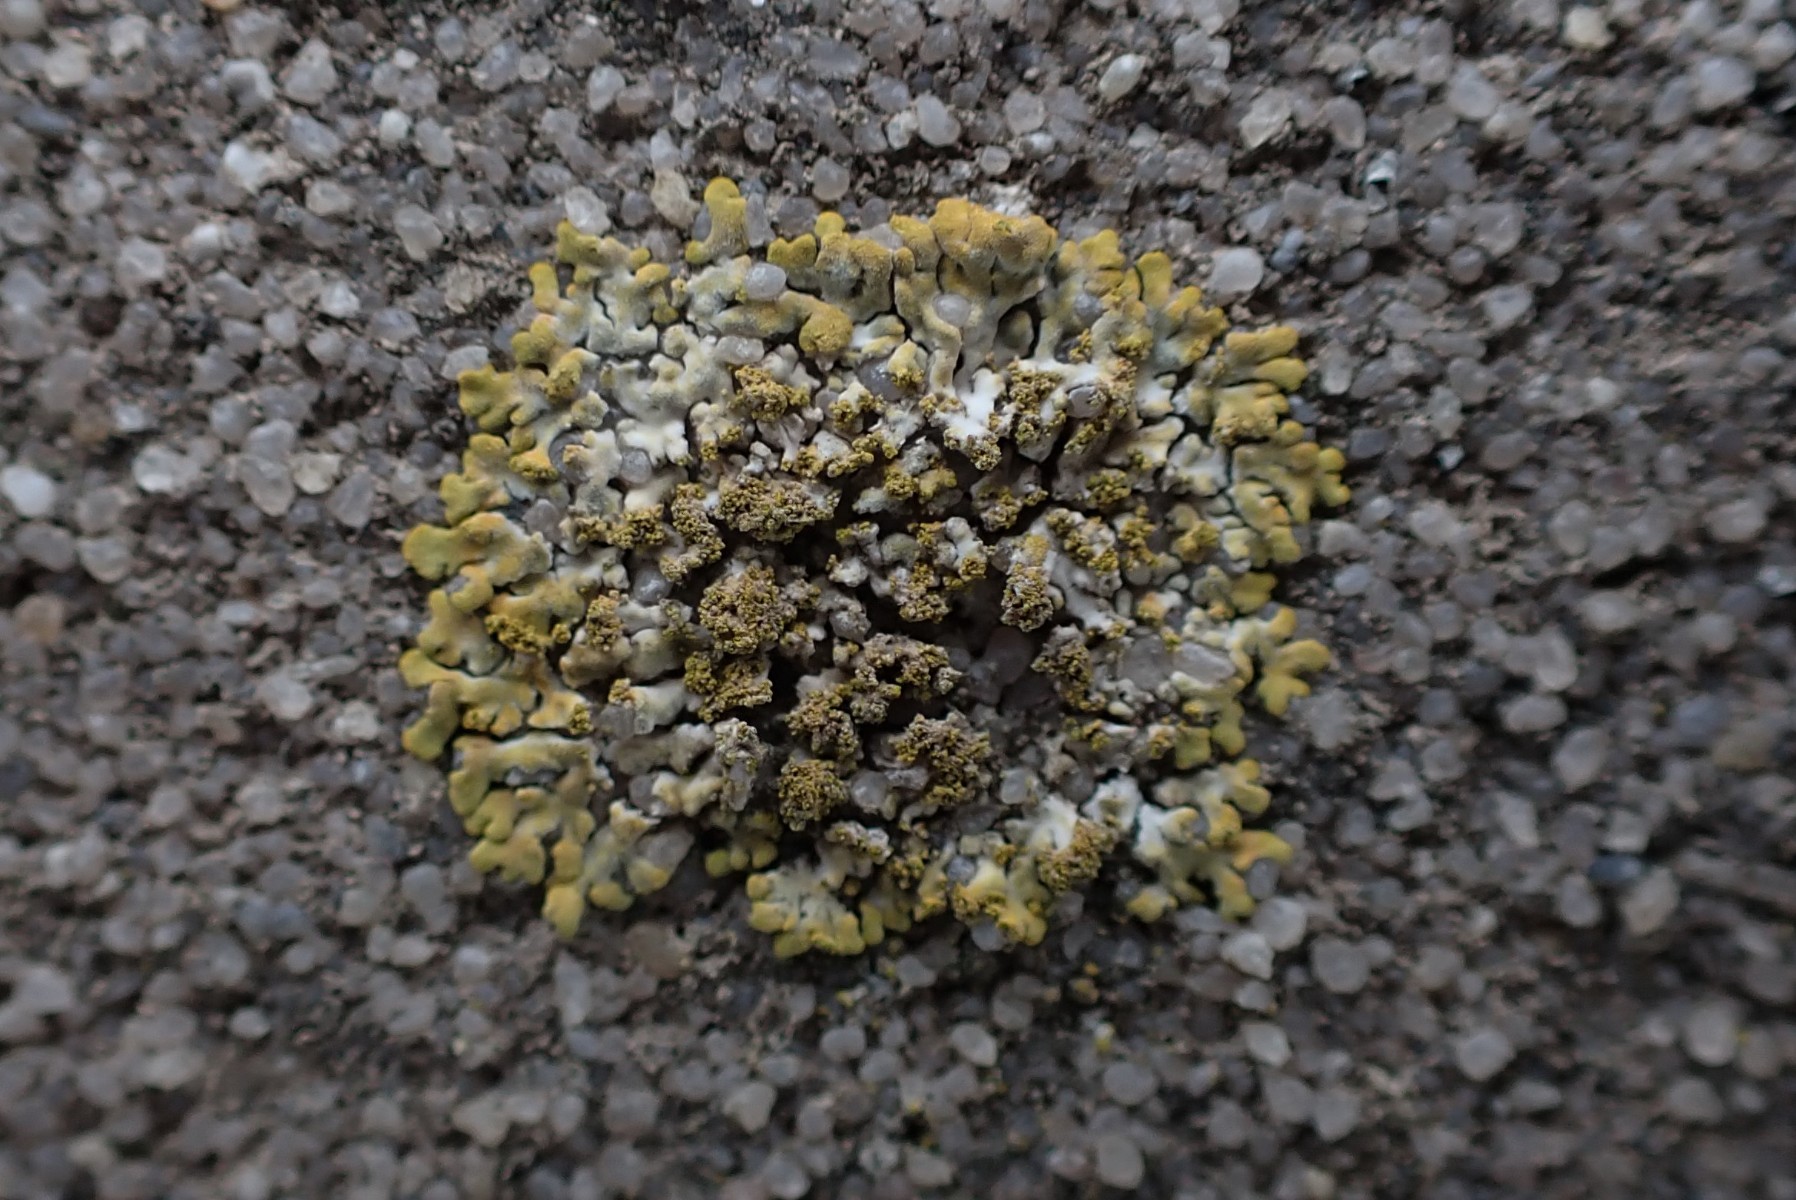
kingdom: Fungi
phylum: Ascomycota
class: Lecanoromycetes
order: Teloschistales
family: Teloschistaceae
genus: Calogaya
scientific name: Calogaya decipiens
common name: knudret orangelav
